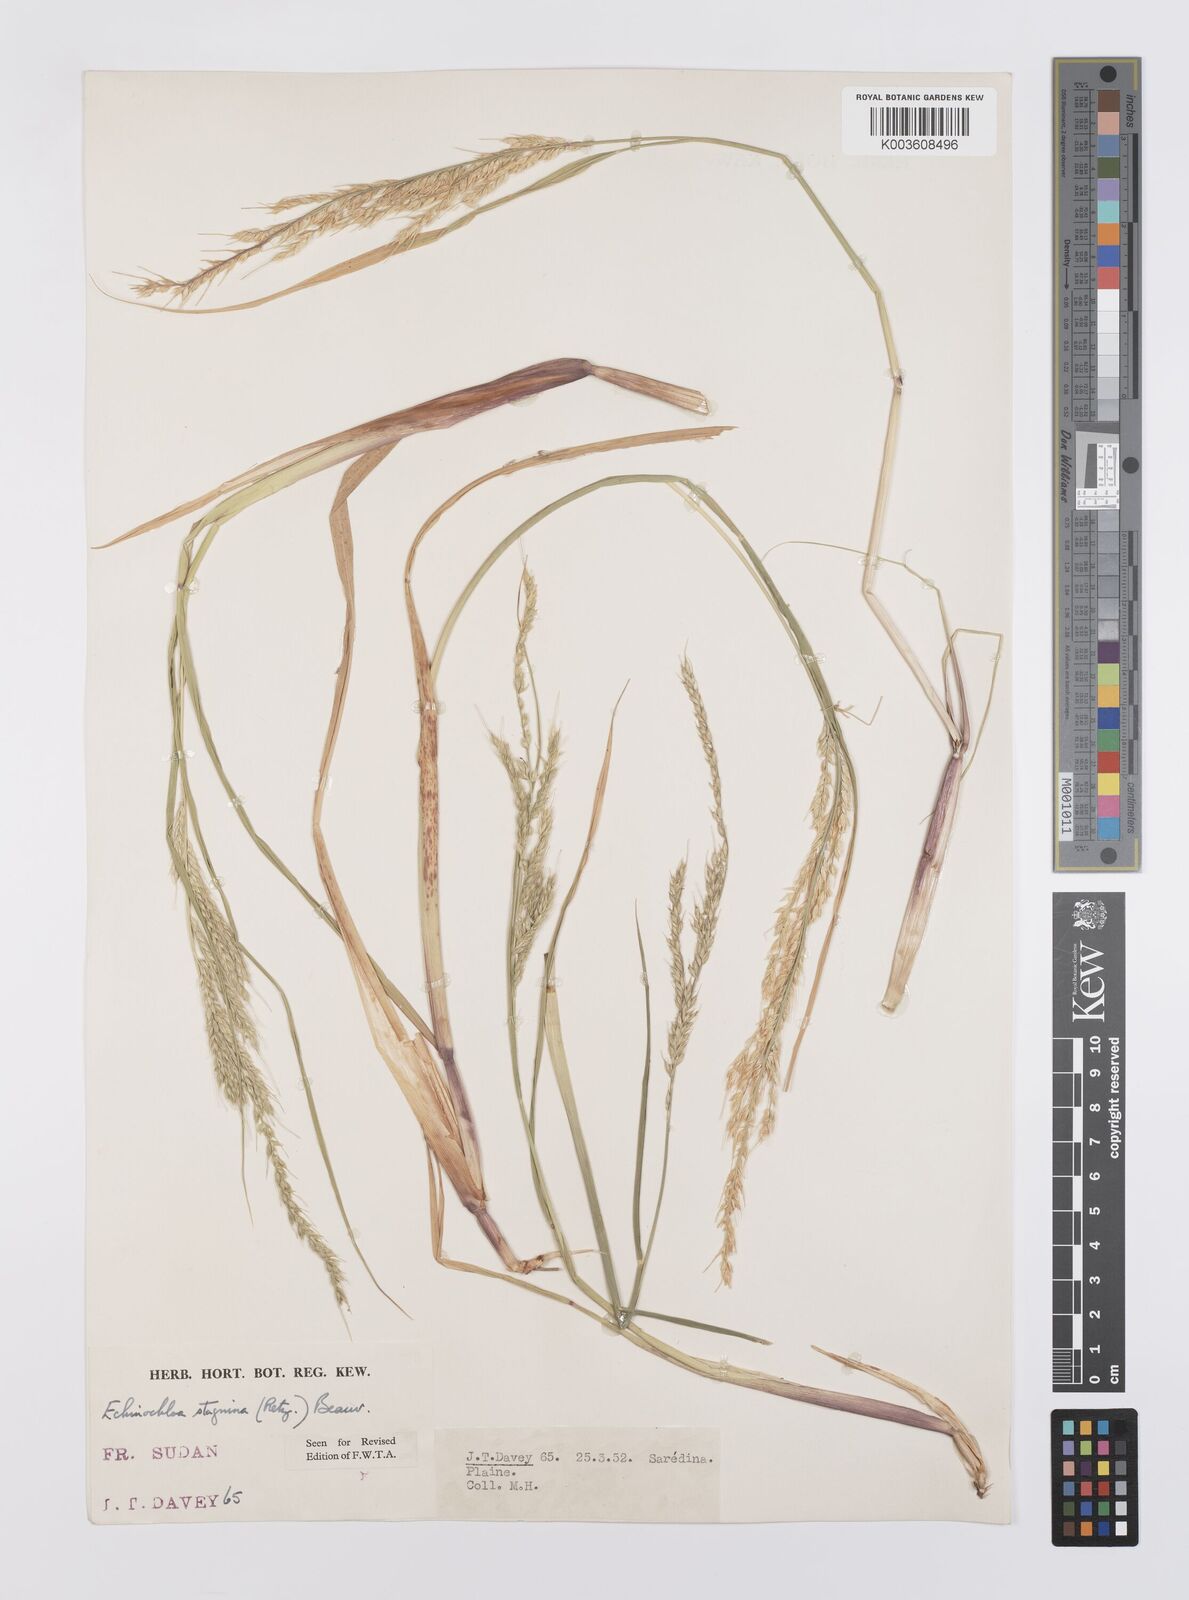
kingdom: Plantae
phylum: Tracheophyta
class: Liliopsida
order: Poales
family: Poaceae
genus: Echinochloa
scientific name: Echinochloa stagnina
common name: Burgu grass
